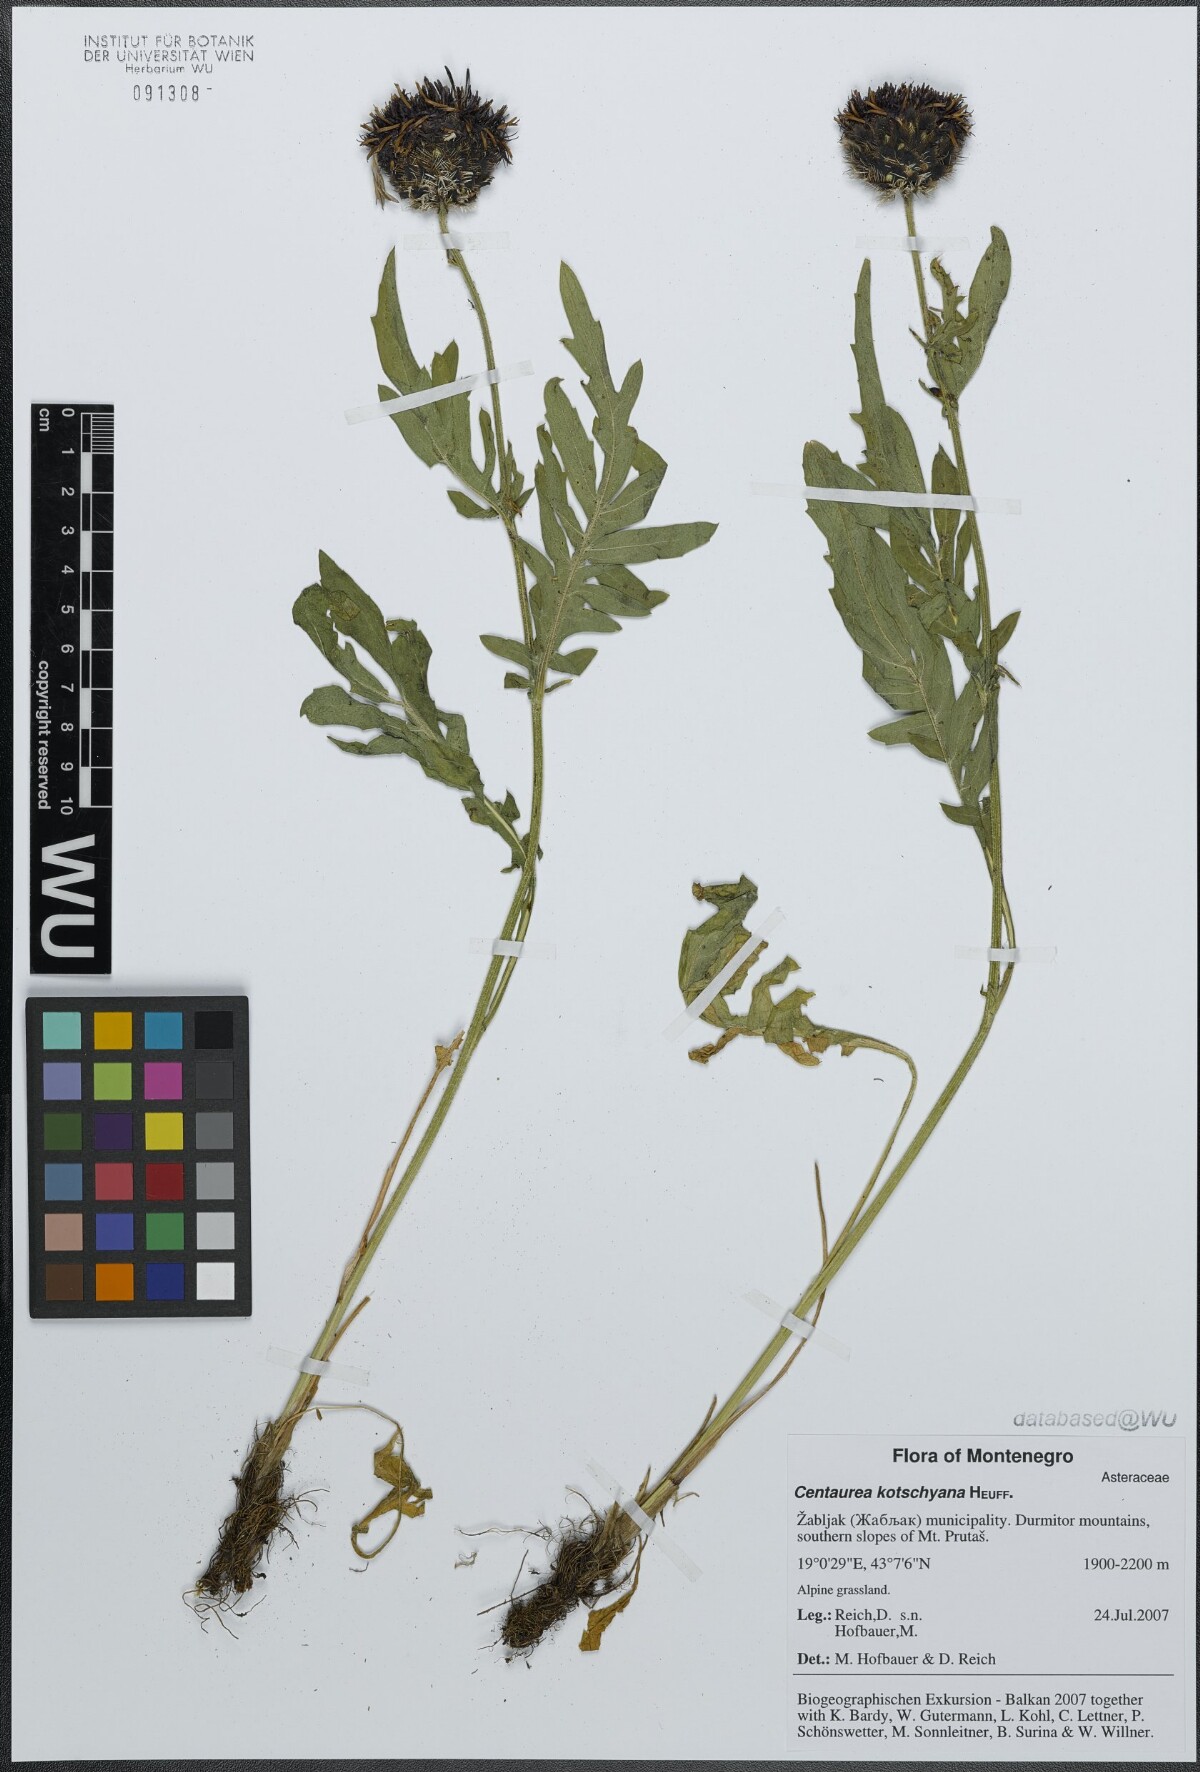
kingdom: Plantae
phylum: Tracheophyta
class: Magnoliopsida
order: Asterales
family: Asteraceae
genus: Centaurea
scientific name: Centaurea kotschyana
